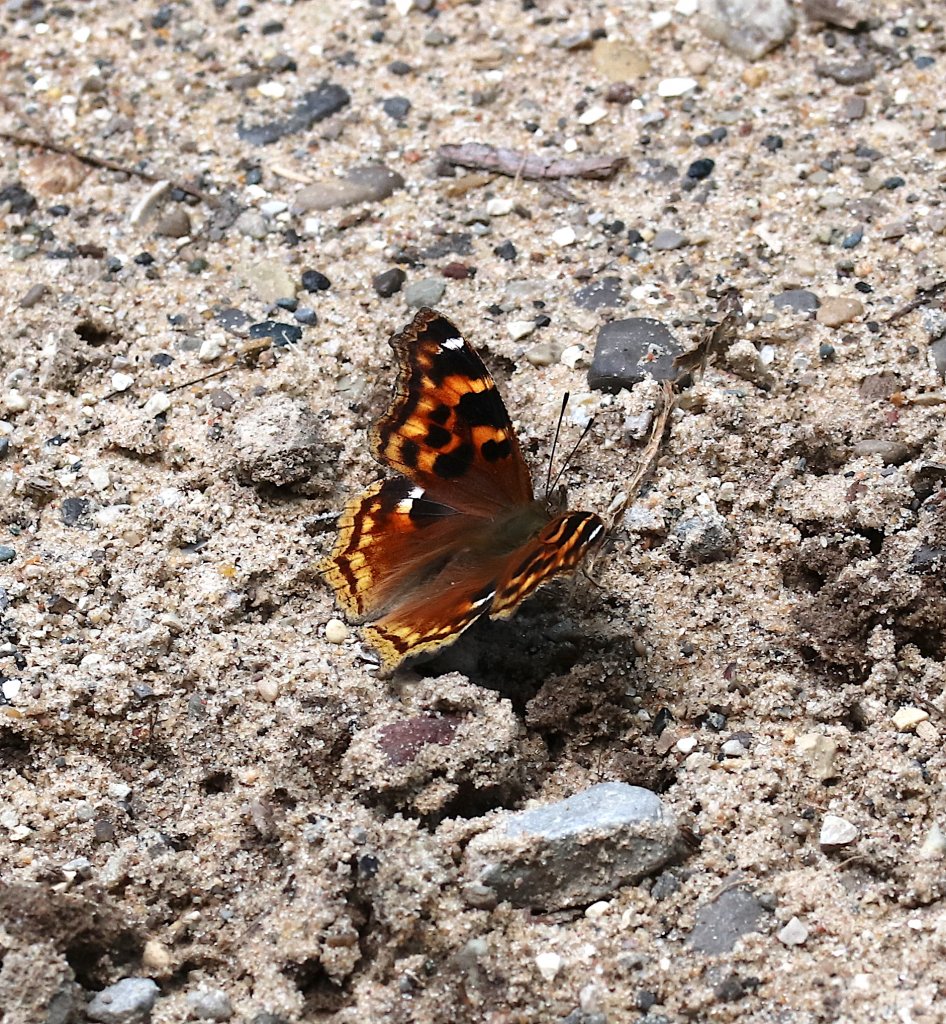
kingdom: Animalia
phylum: Arthropoda
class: Insecta
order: Lepidoptera
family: Nymphalidae
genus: Polygonia
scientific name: Polygonia vaualbum
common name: Compton Tortoiseshell
